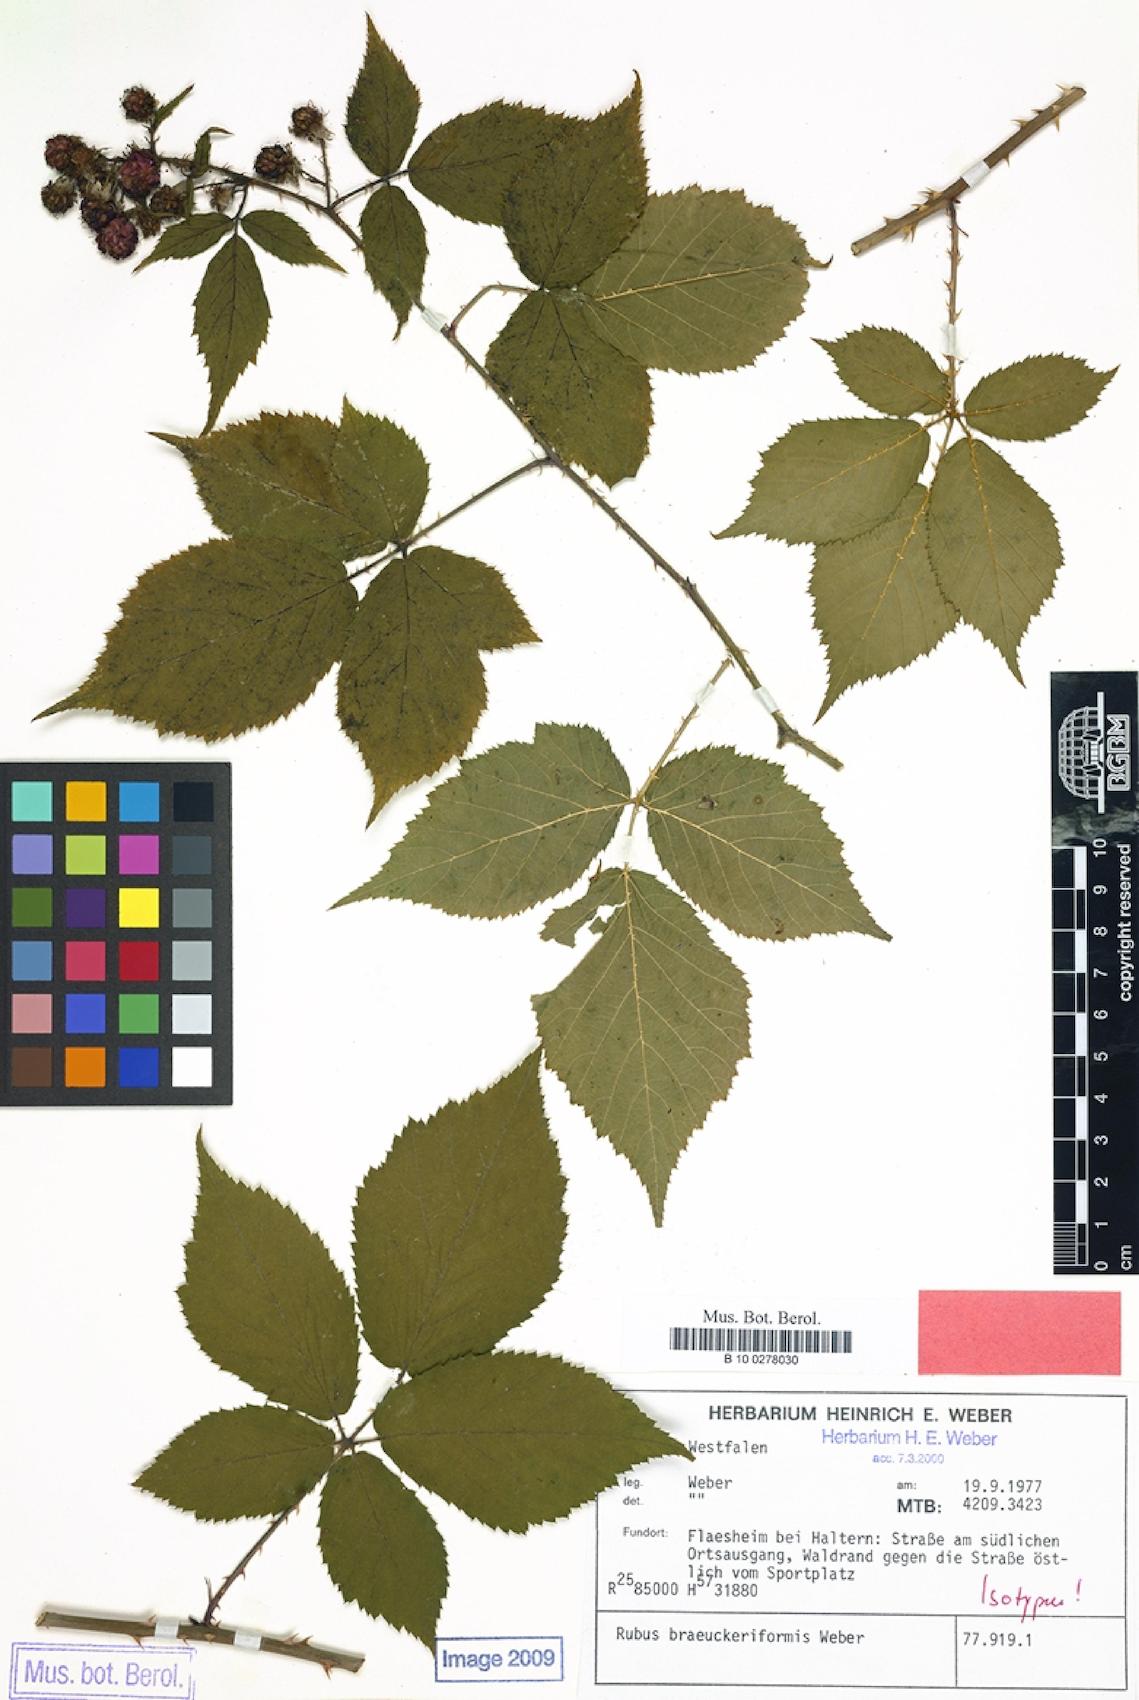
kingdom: Plantae
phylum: Tracheophyta
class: Magnoliopsida
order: Rosales
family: Rosaceae
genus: Rubus
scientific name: Rubus braeuckeriformis
